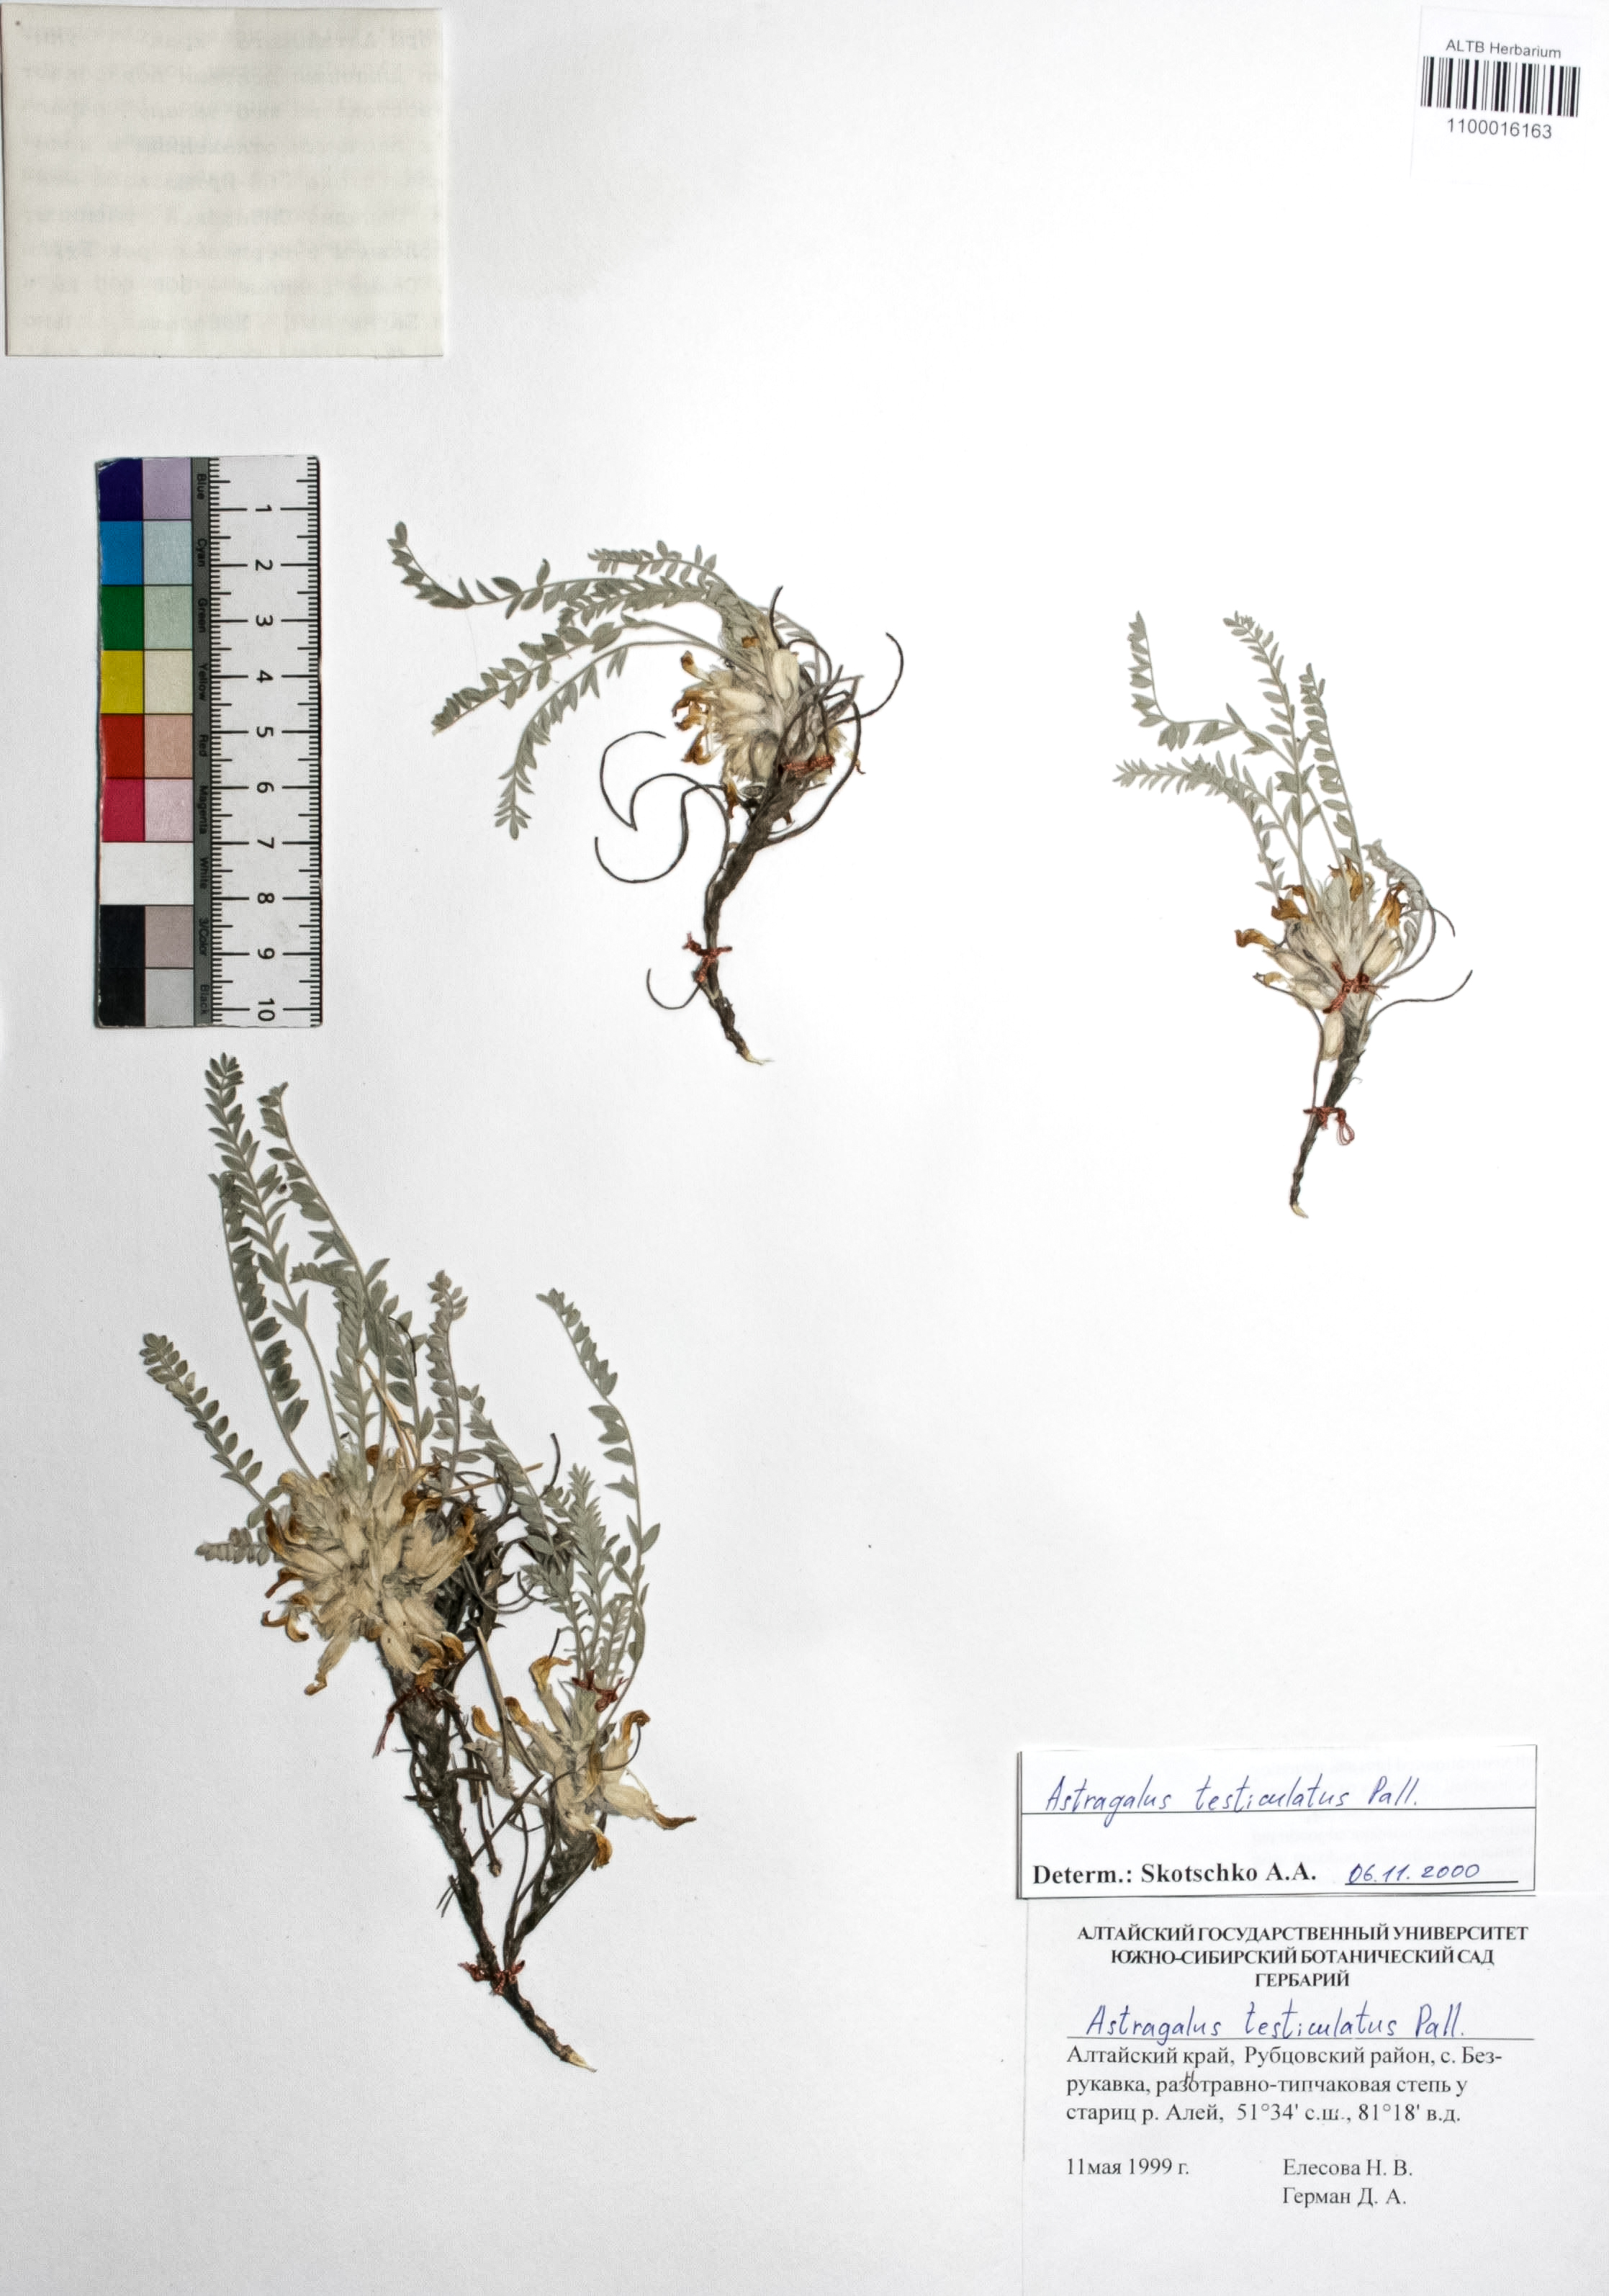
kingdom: Plantae
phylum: Tracheophyta
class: Magnoliopsida
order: Fabales
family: Fabaceae
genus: Astragalus
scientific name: Astragalus testiculatus
